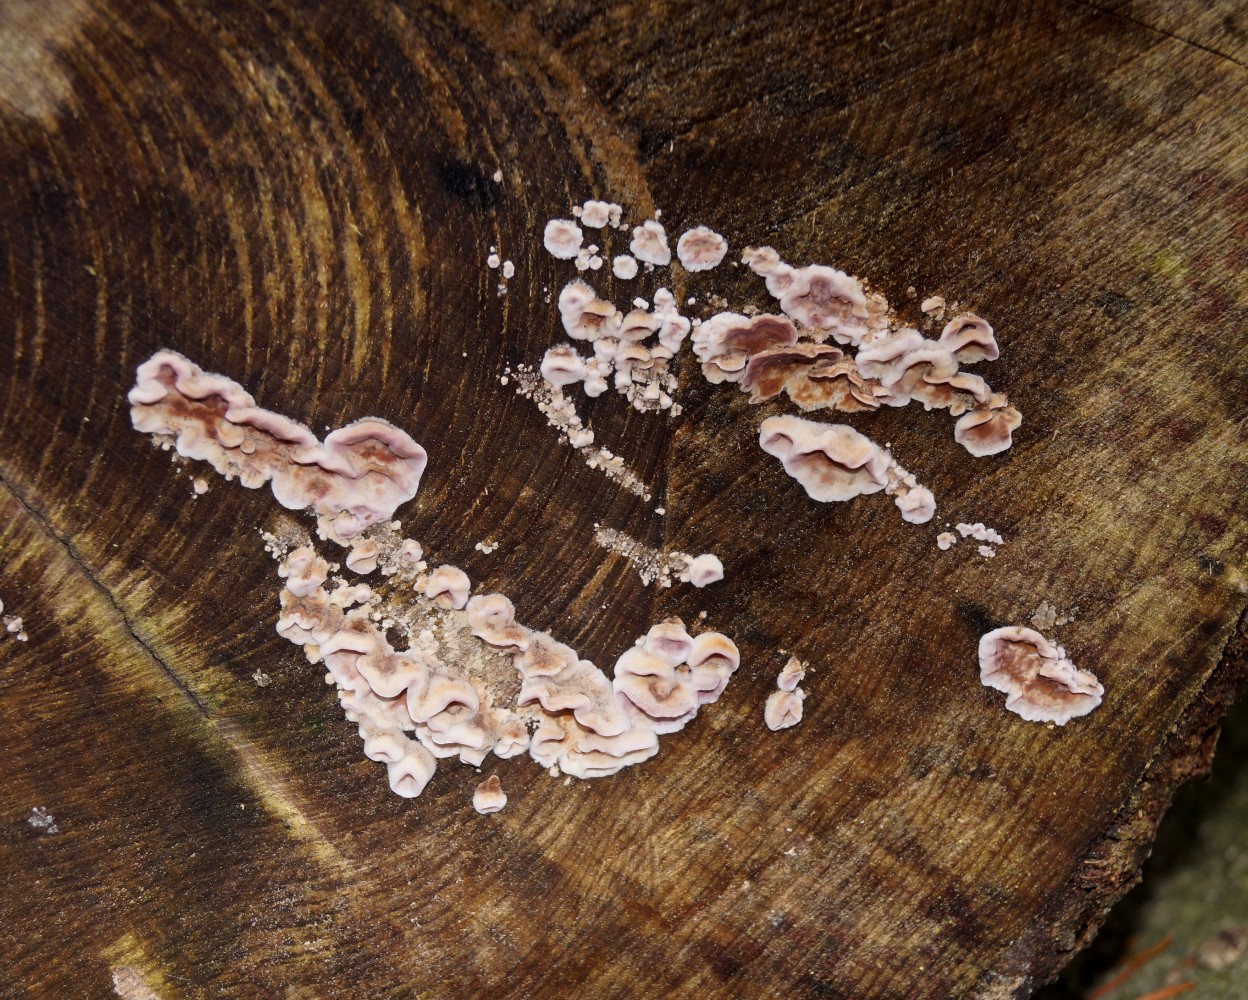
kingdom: Fungi
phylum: Basidiomycota
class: Agaricomycetes
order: Agaricales
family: Cyphellaceae
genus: Chondrostereum
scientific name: Chondrostereum purpureum
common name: purpurlædersvamp
